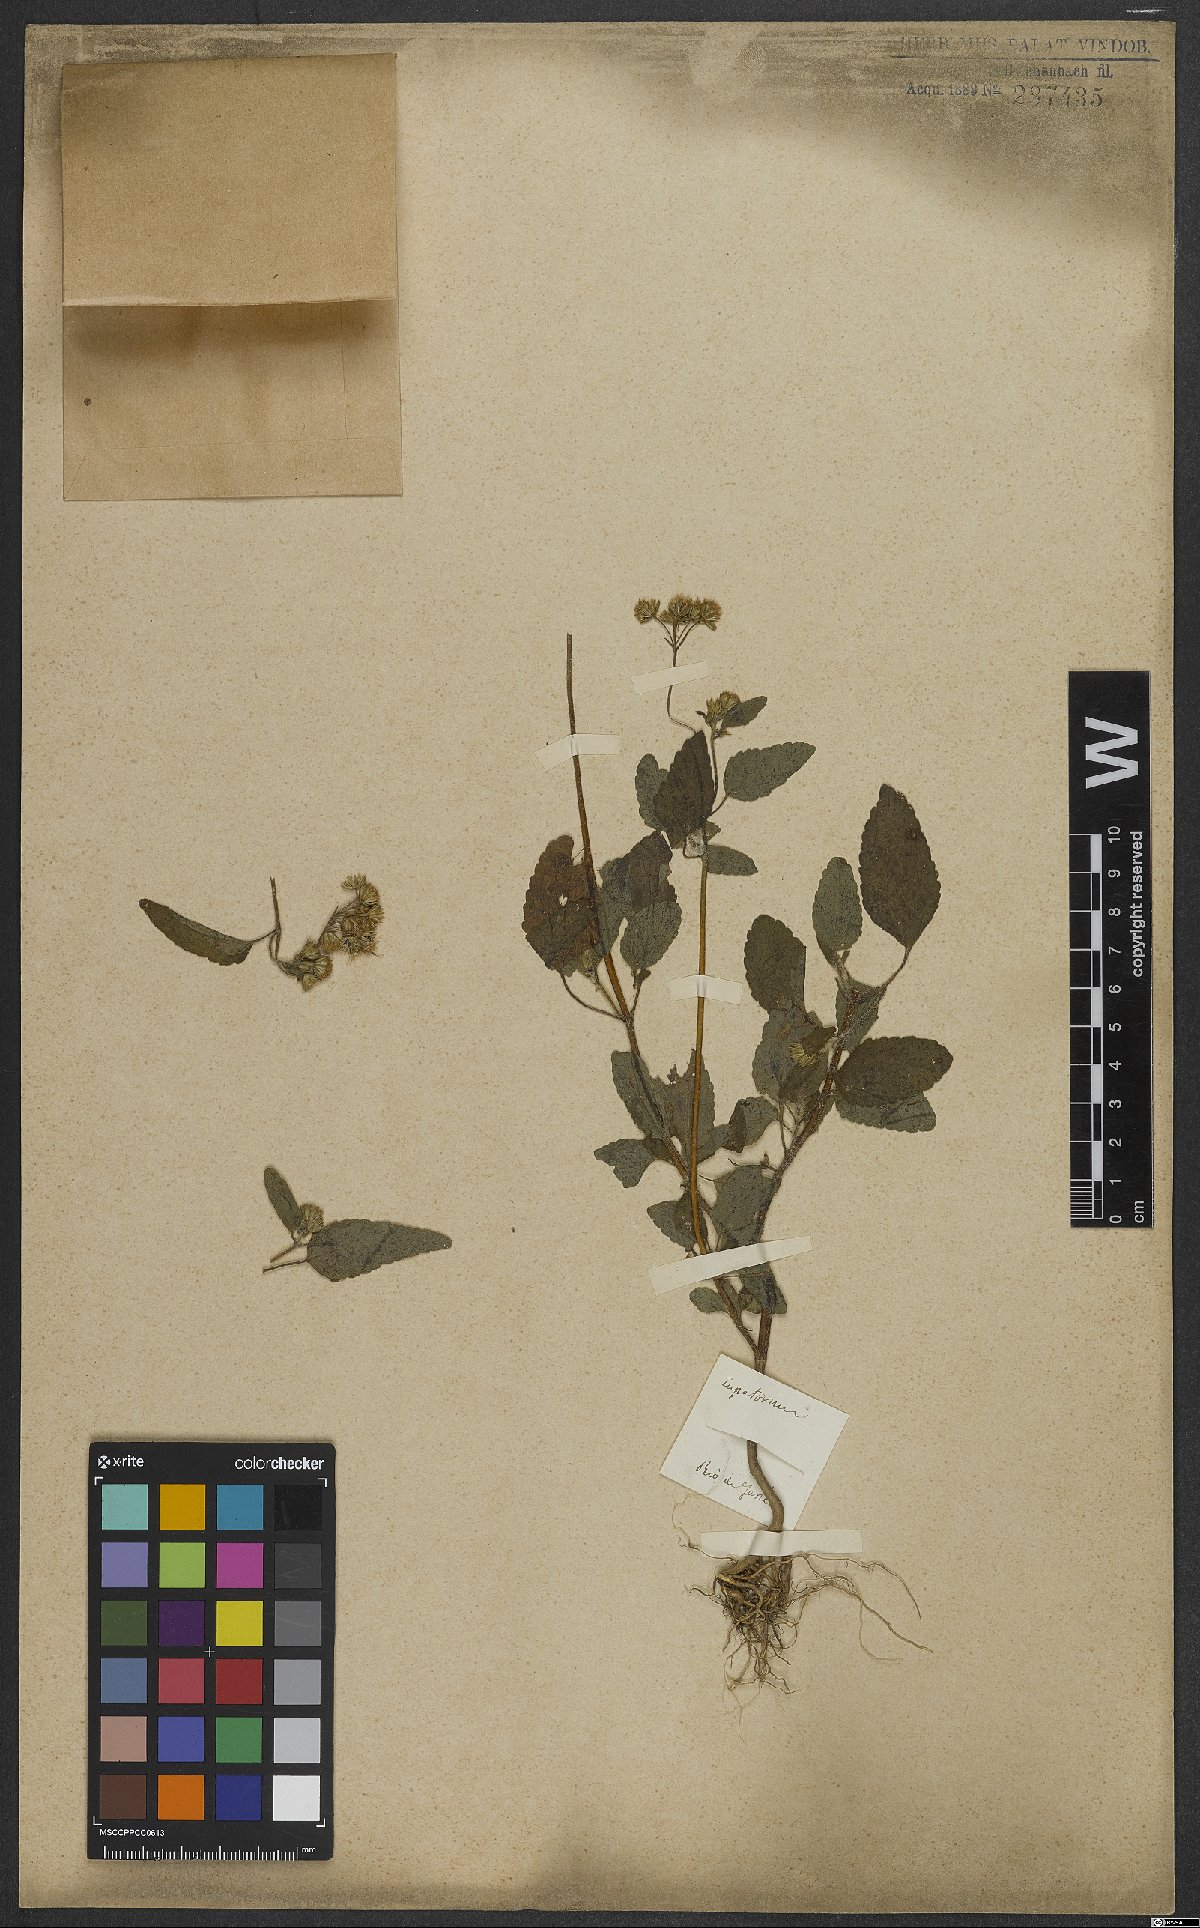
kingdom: Plantae
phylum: Tracheophyta
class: Magnoliopsida
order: Asterales
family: Asteraceae
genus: Eupatorium
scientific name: Eupatorium
